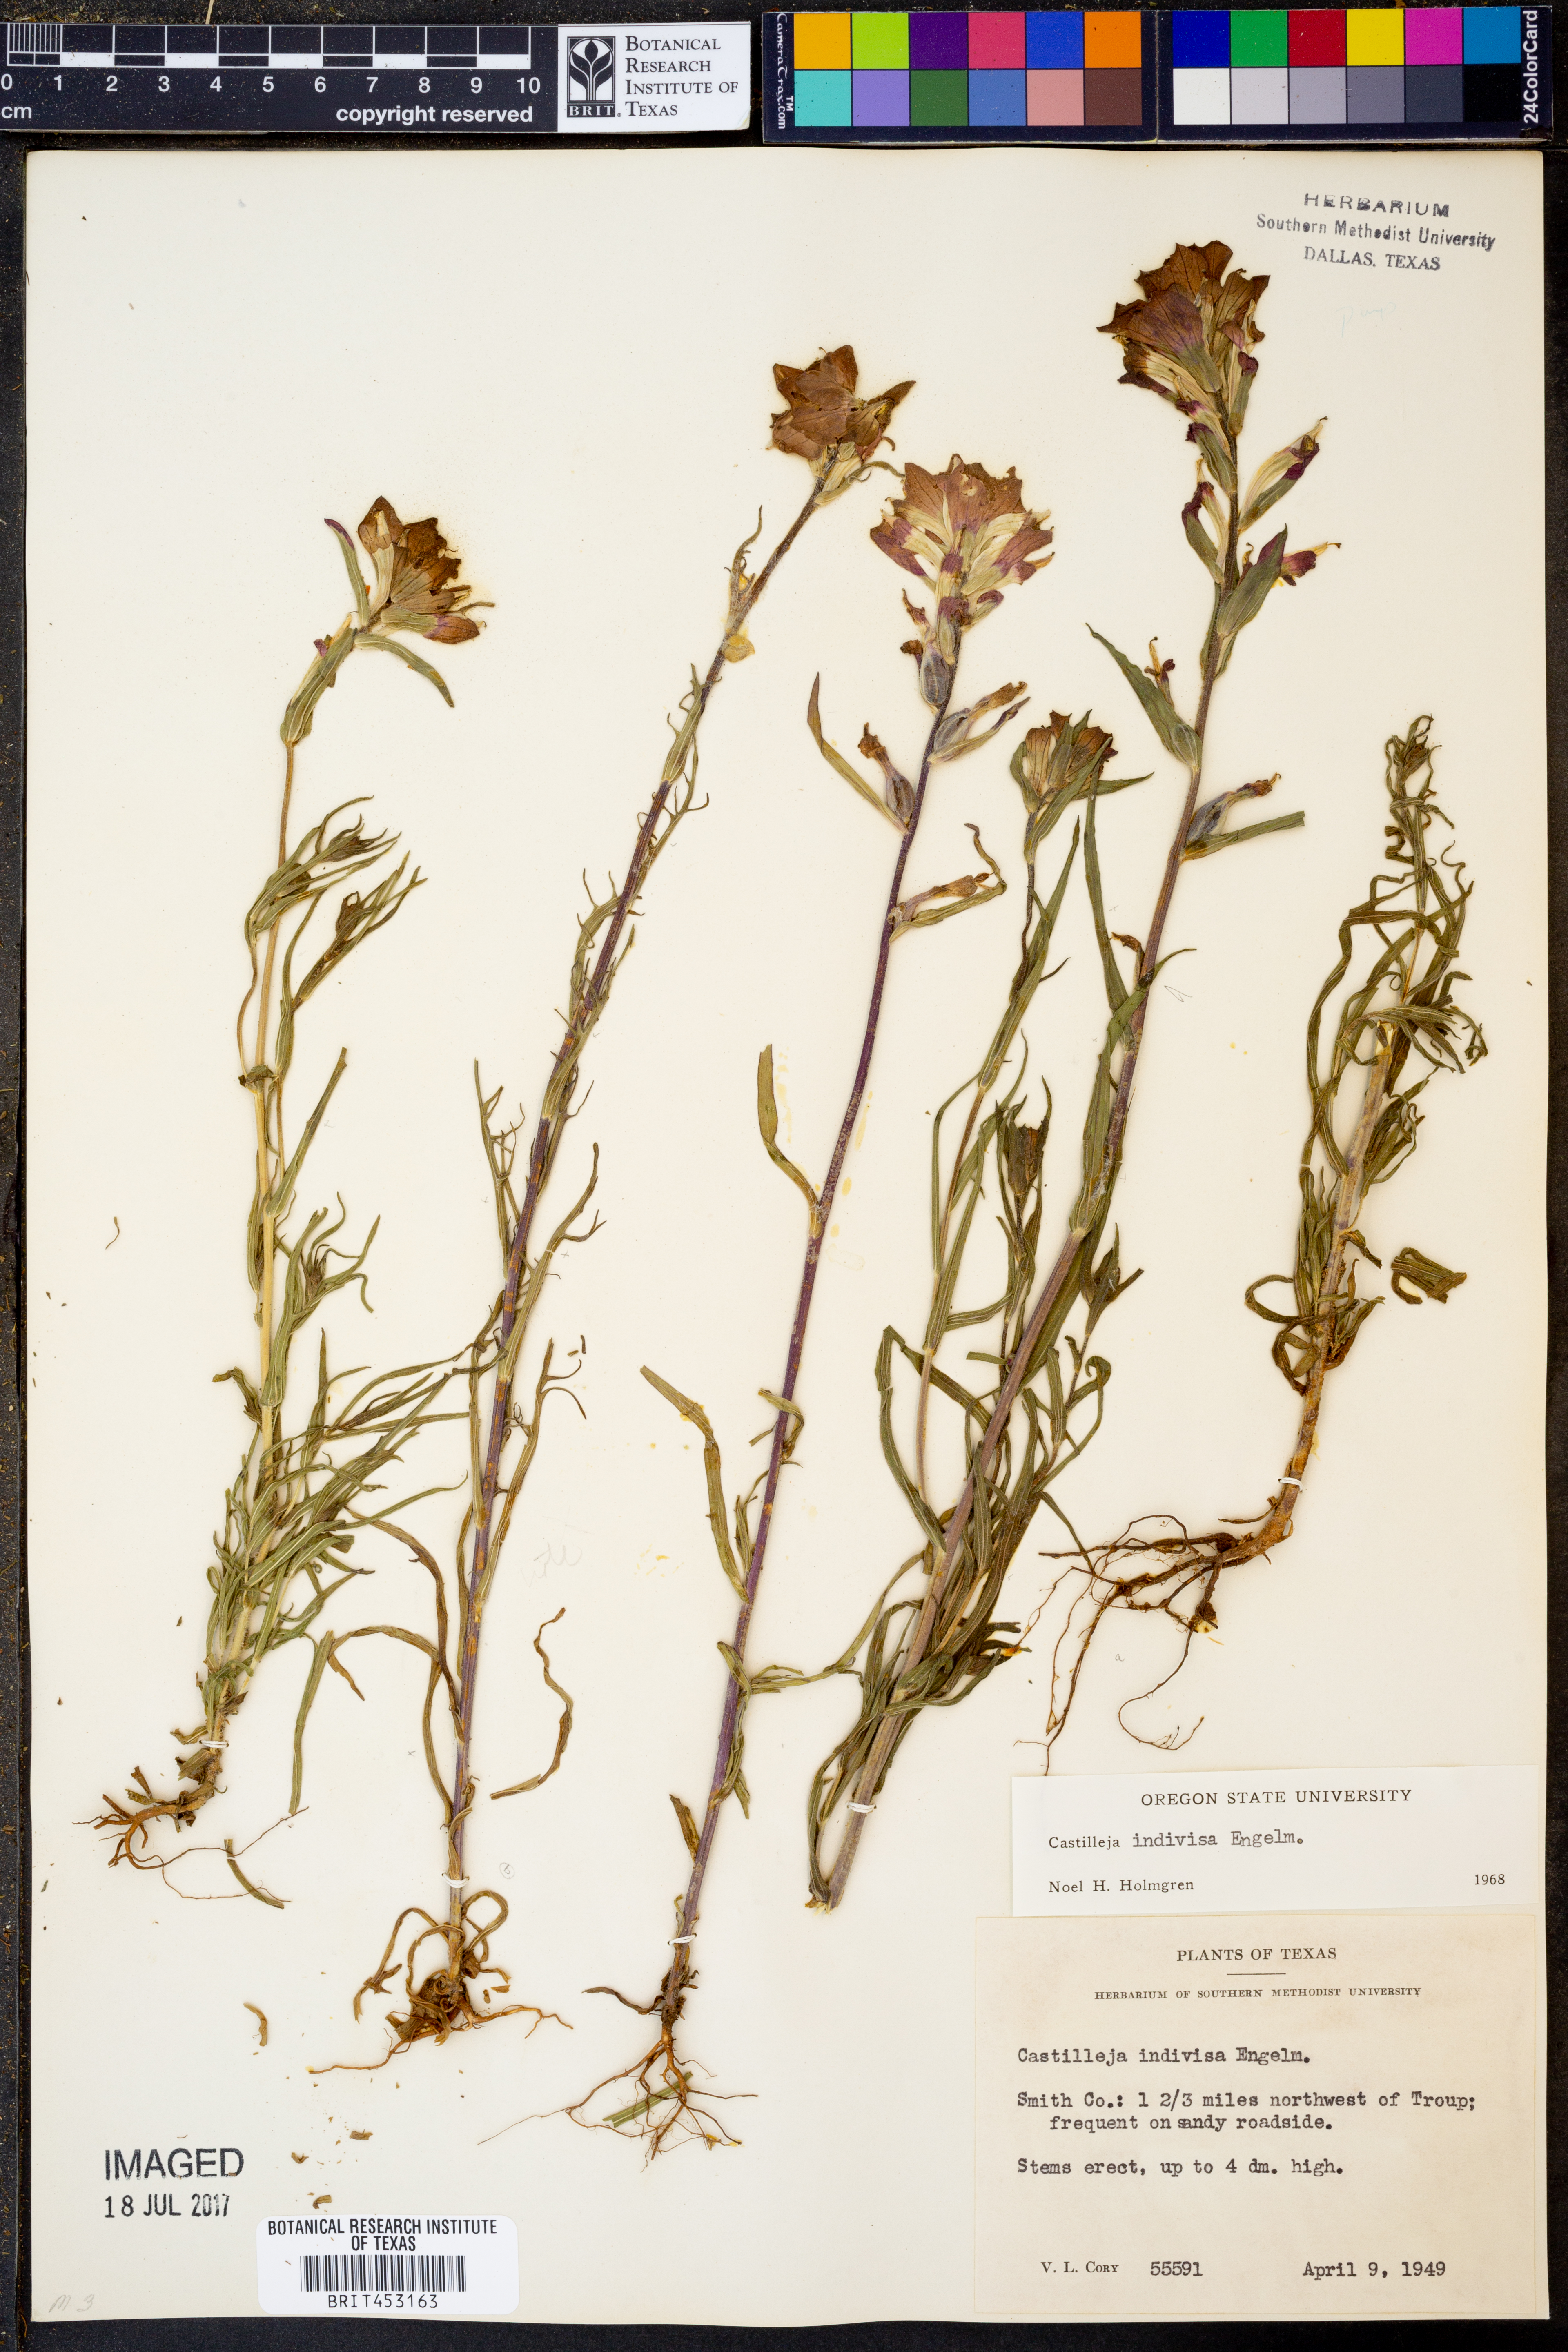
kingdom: Plantae
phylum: Tracheophyta
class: Magnoliopsida
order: Lamiales
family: Orobanchaceae
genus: Castilleja
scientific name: Castilleja indivisa
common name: Texas paintbrush
